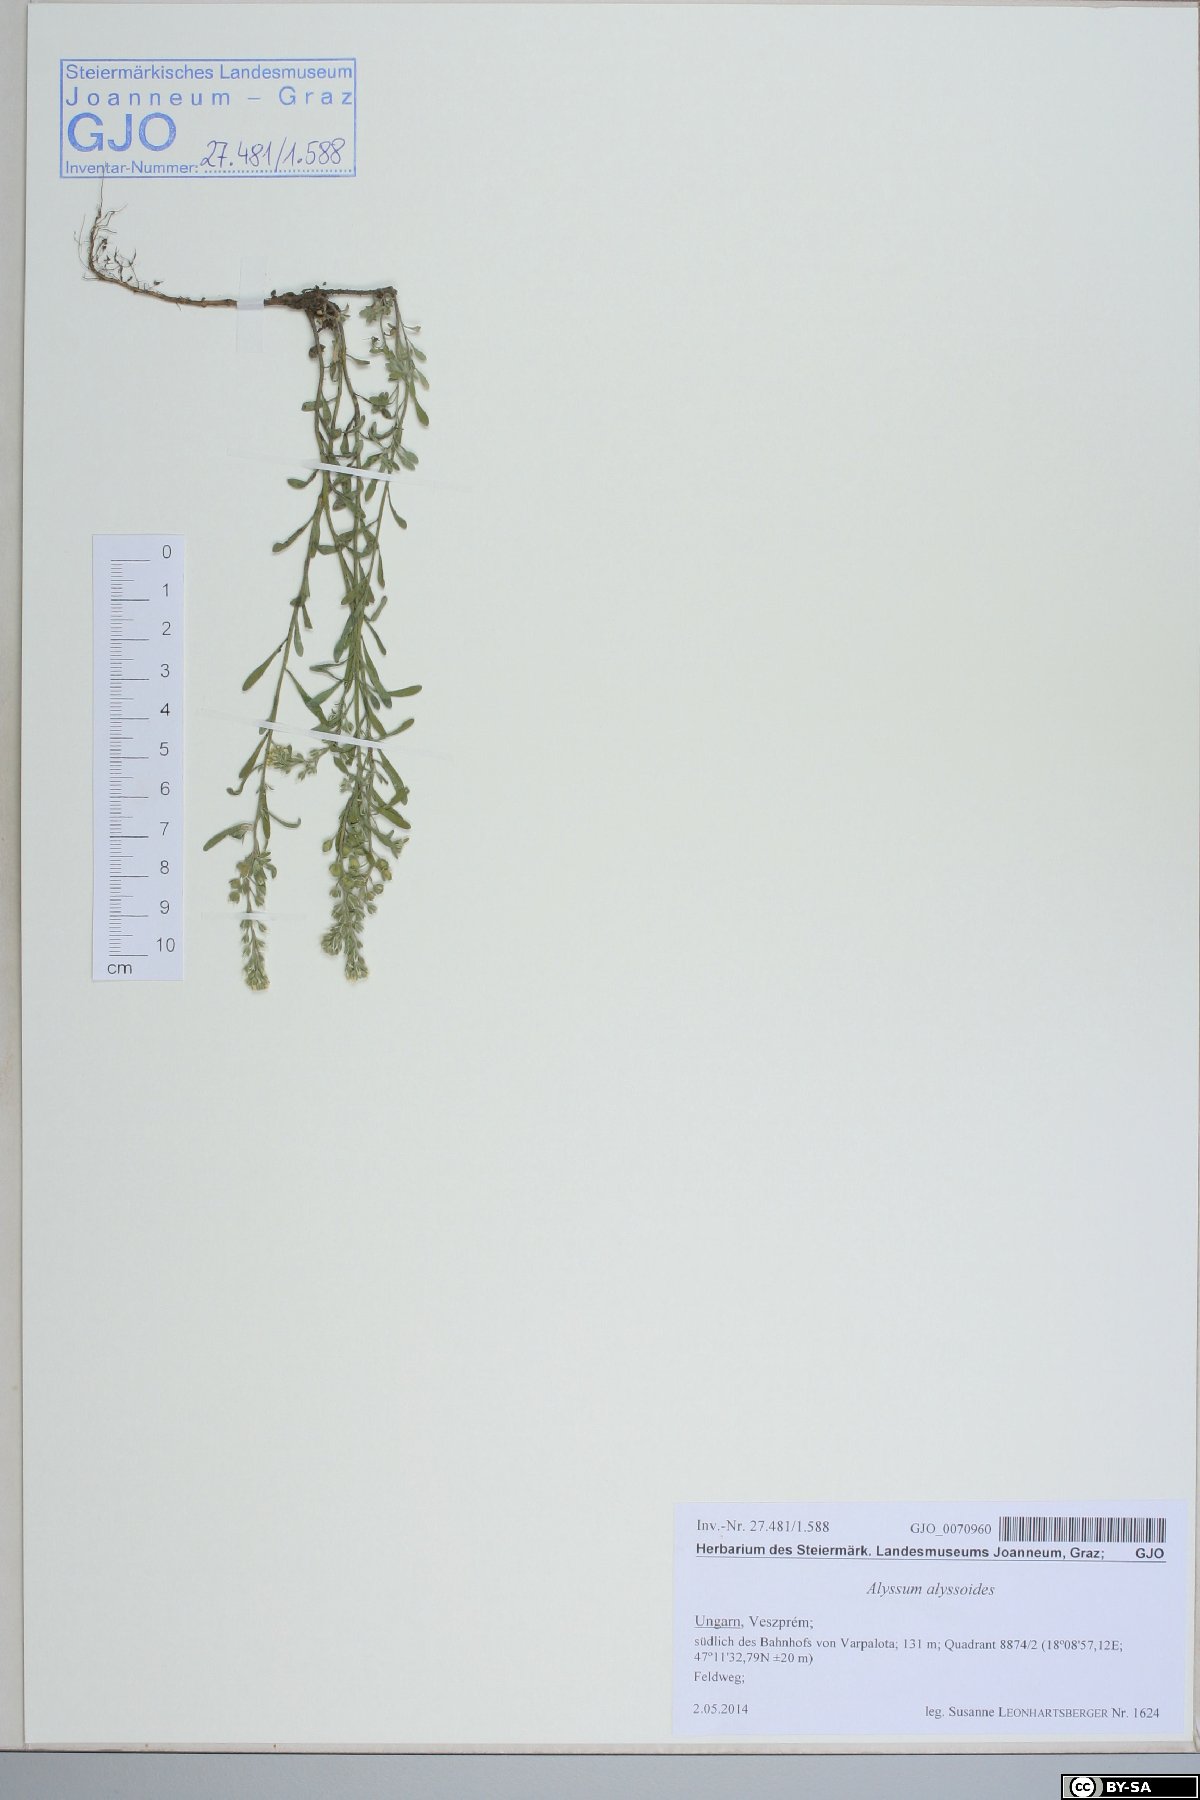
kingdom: Plantae
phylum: Tracheophyta
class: Magnoliopsida
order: Brassicales
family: Brassicaceae
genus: Alyssum
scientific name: Alyssum alyssoides
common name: Small alison
